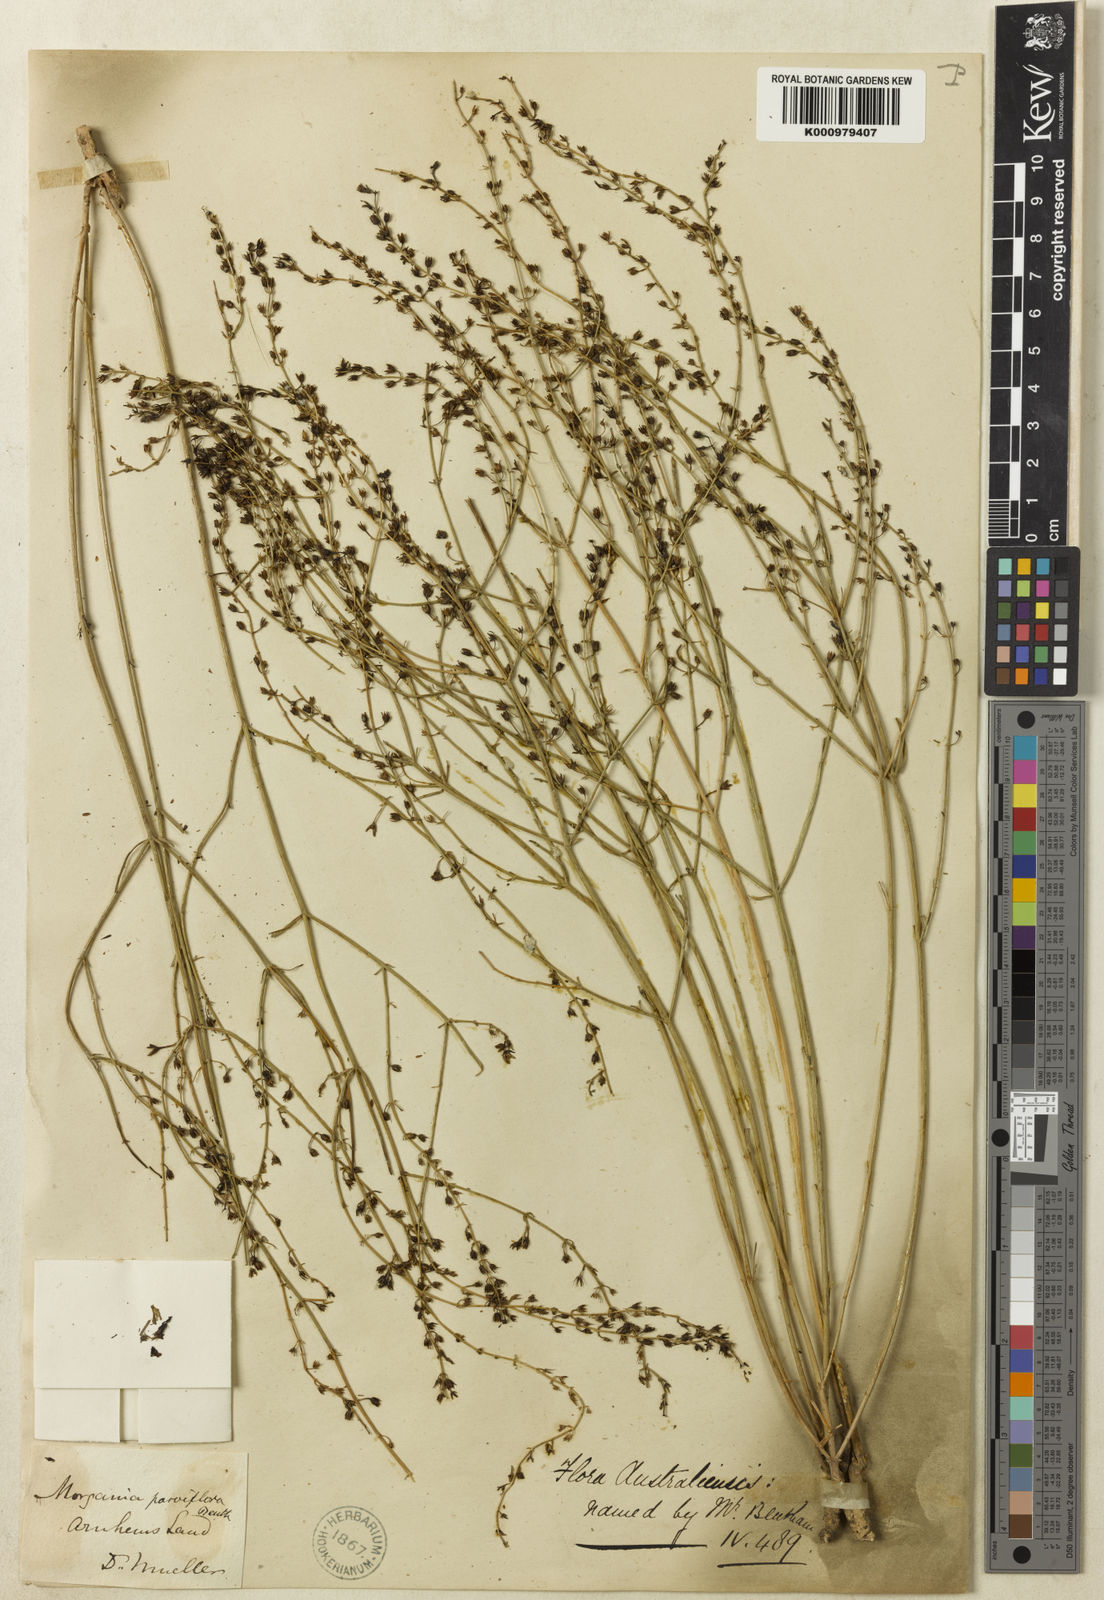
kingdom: Plantae
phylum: Tracheophyta
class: Magnoliopsida
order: Lamiales
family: Plantaginaceae
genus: Stemodia
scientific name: Stemodia lathraia
